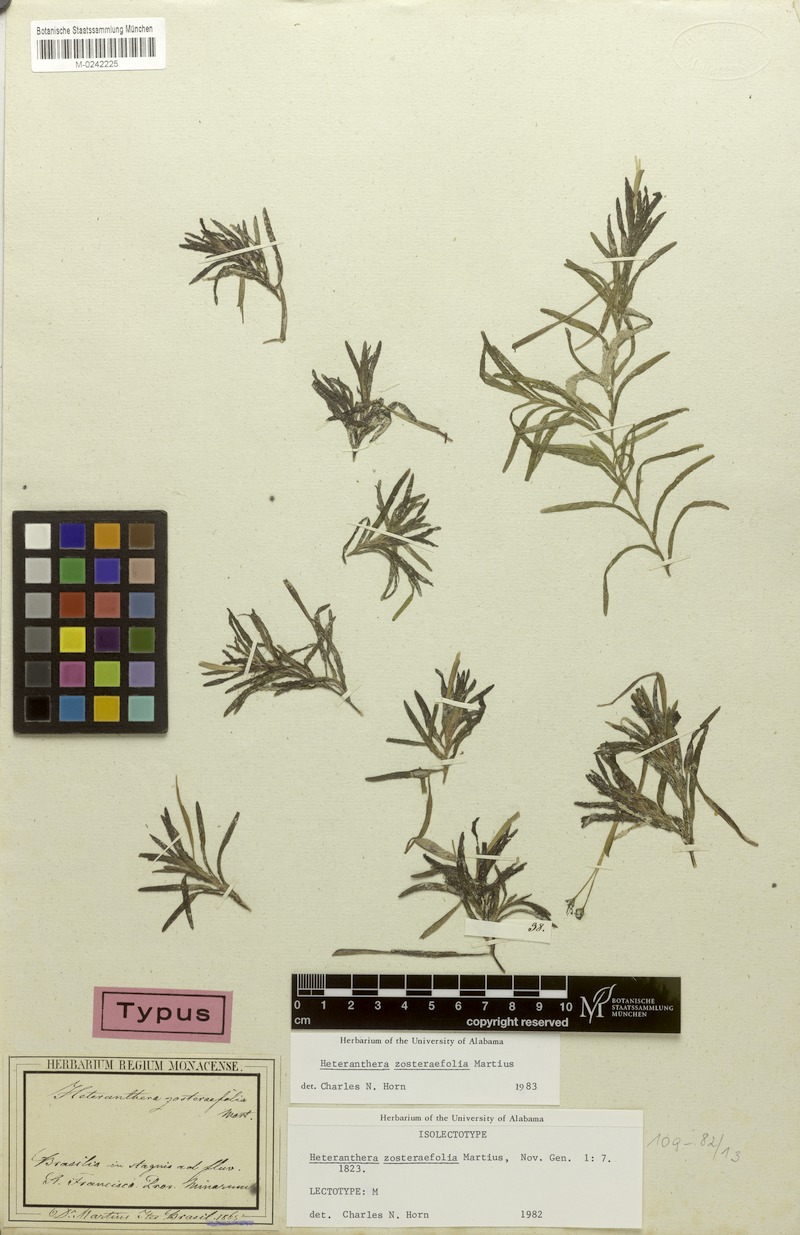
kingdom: Plantae
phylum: Tracheophyta
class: Liliopsida
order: Commelinales
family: Pontederiaceae
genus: Heteranthera
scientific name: Heteranthera zosterifolia
